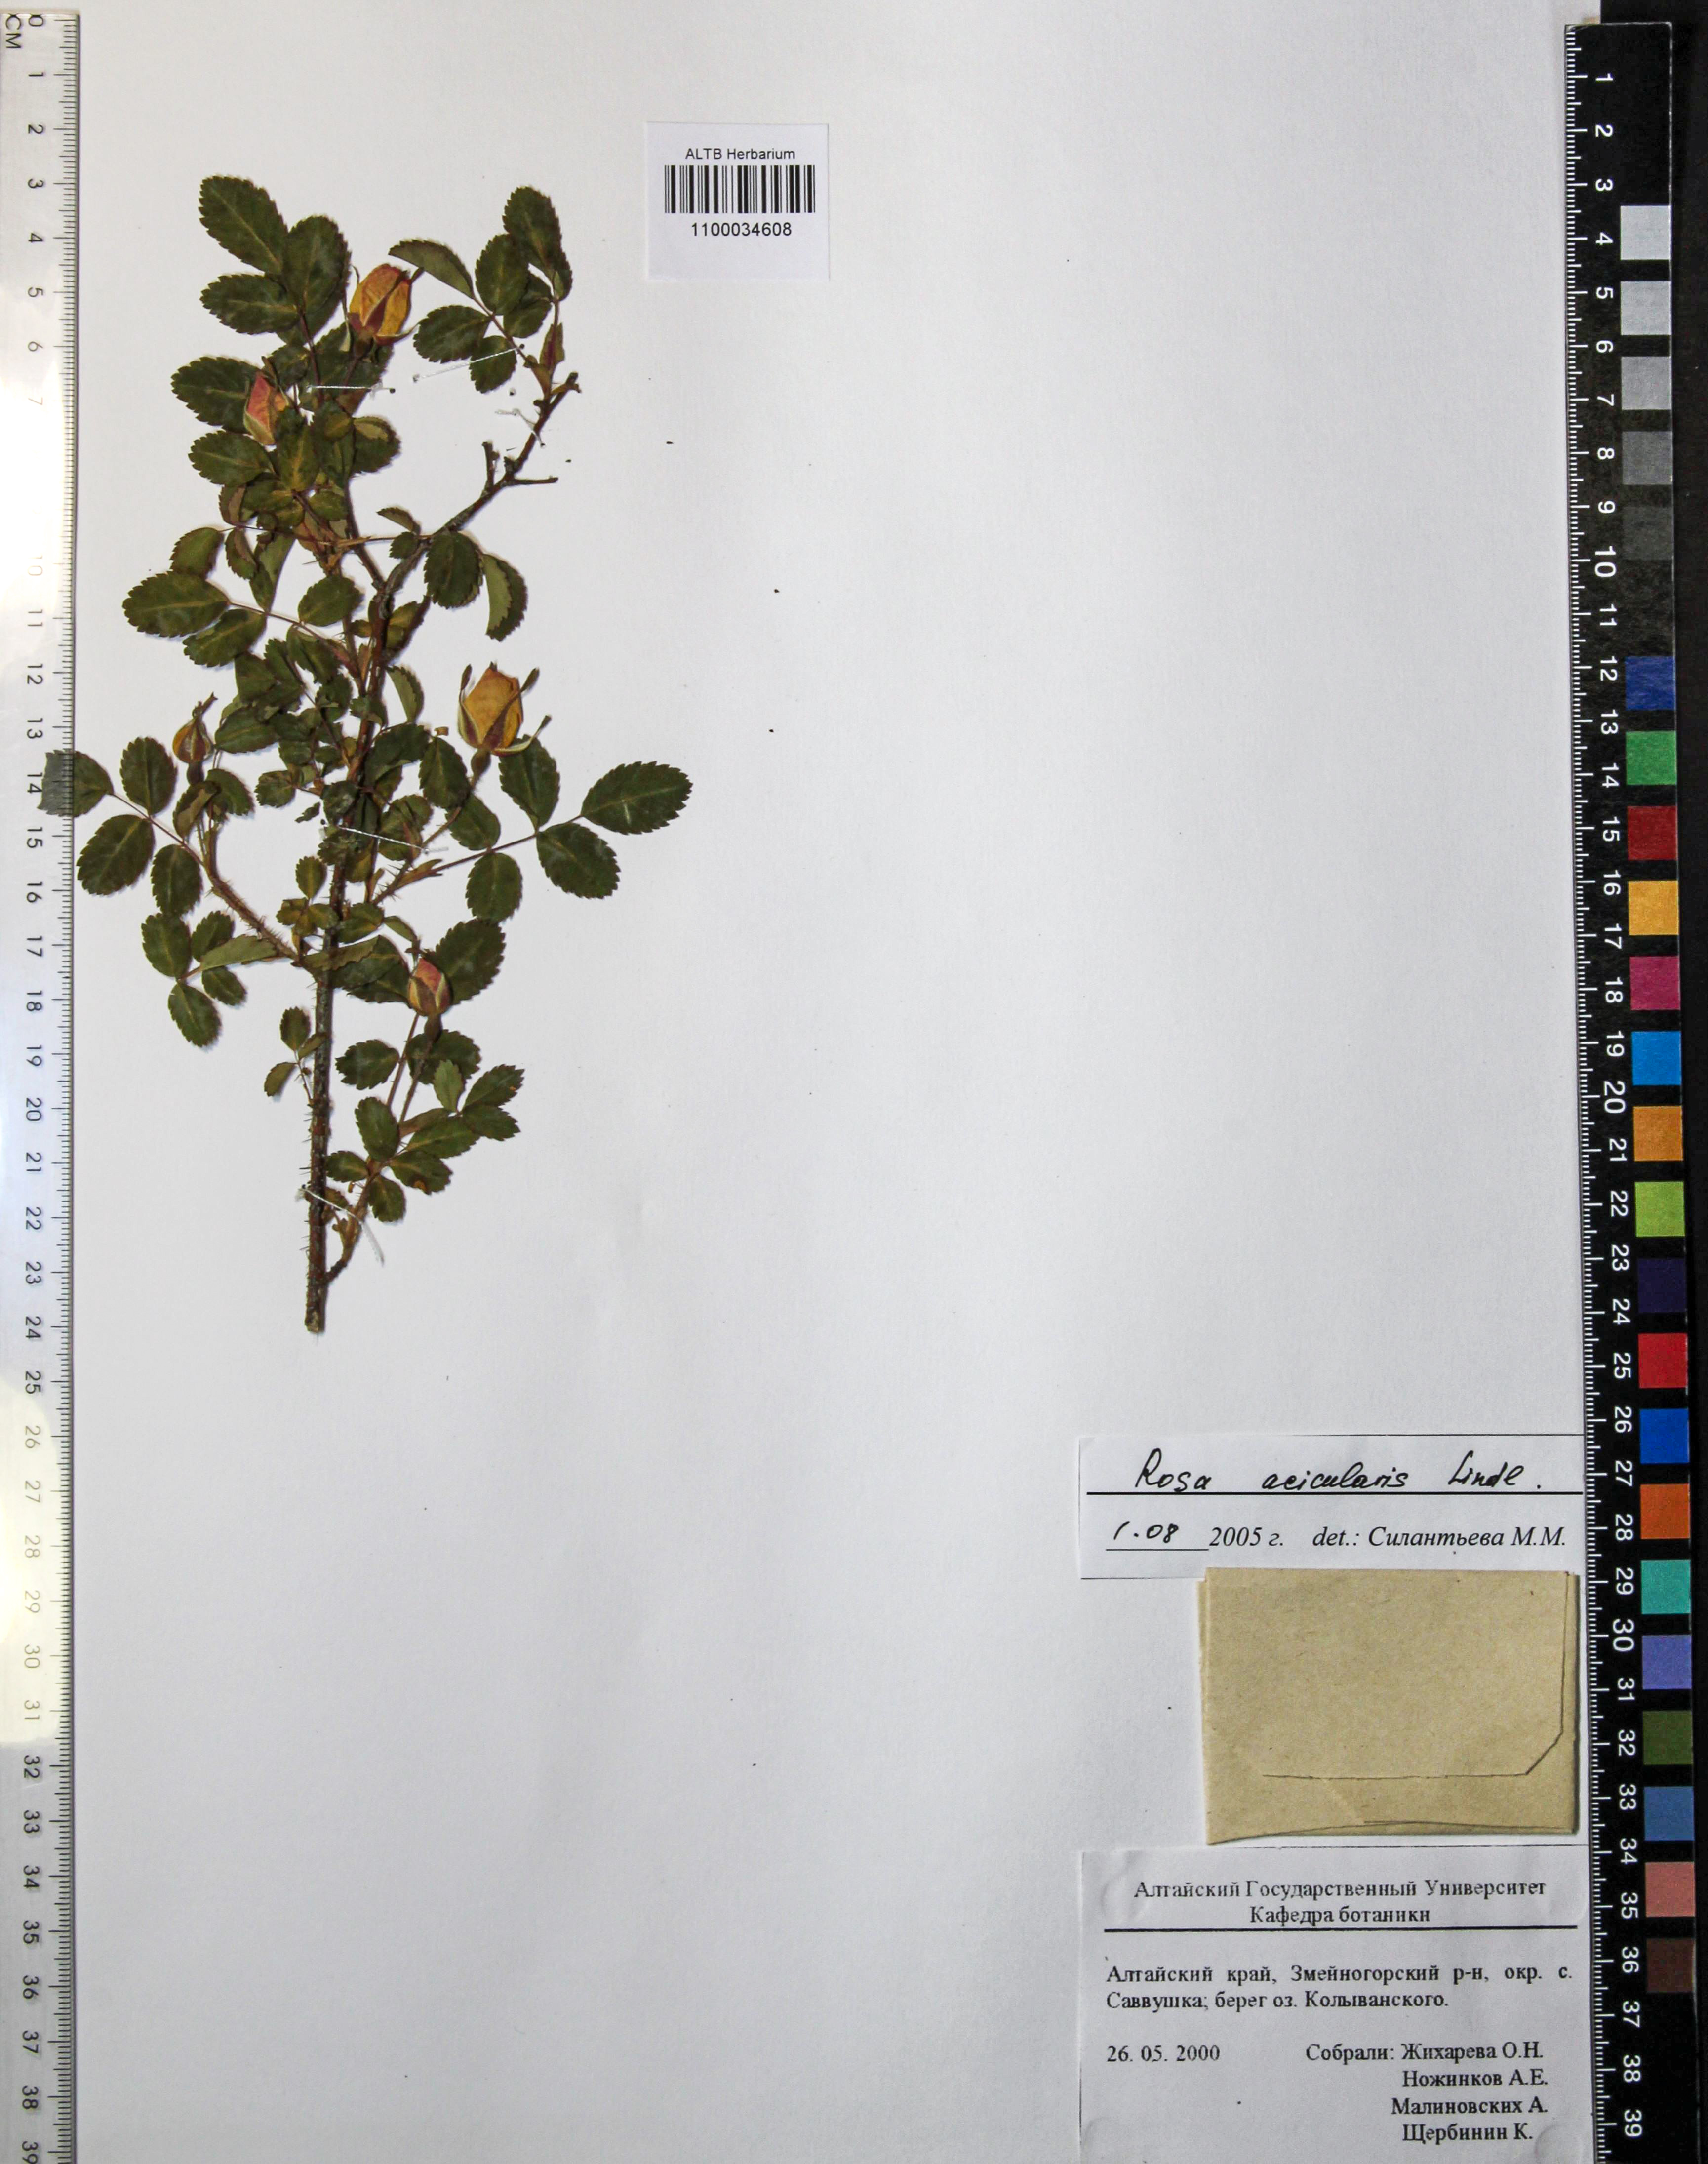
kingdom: Plantae
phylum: Tracheophyta
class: Magnoliopsida
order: Rosales
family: Rosaceae
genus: Rosa
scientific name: Rosa acicularis
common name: Prickly rose
